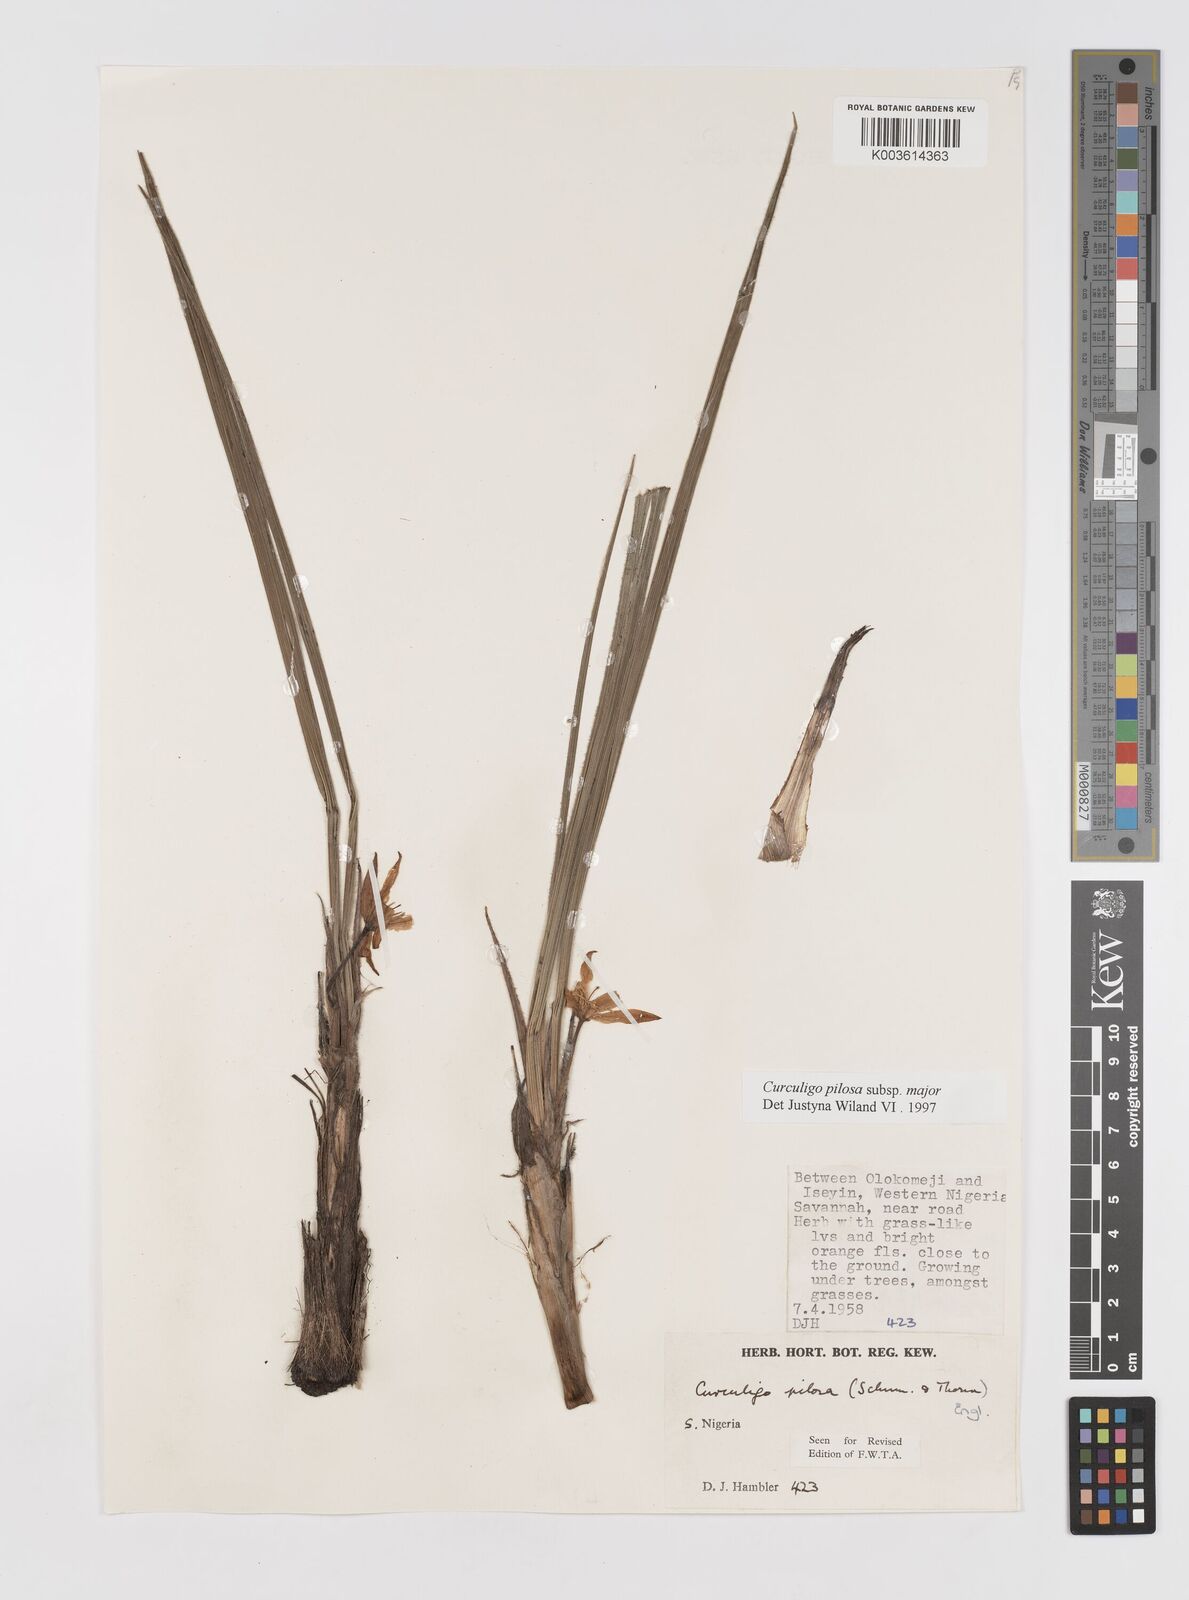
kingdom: Plantae
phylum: Tracheophyta
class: Liliopsida
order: Asparagales
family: Hypoxidaceae
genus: Curculigo
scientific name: Curculigo pilosa
